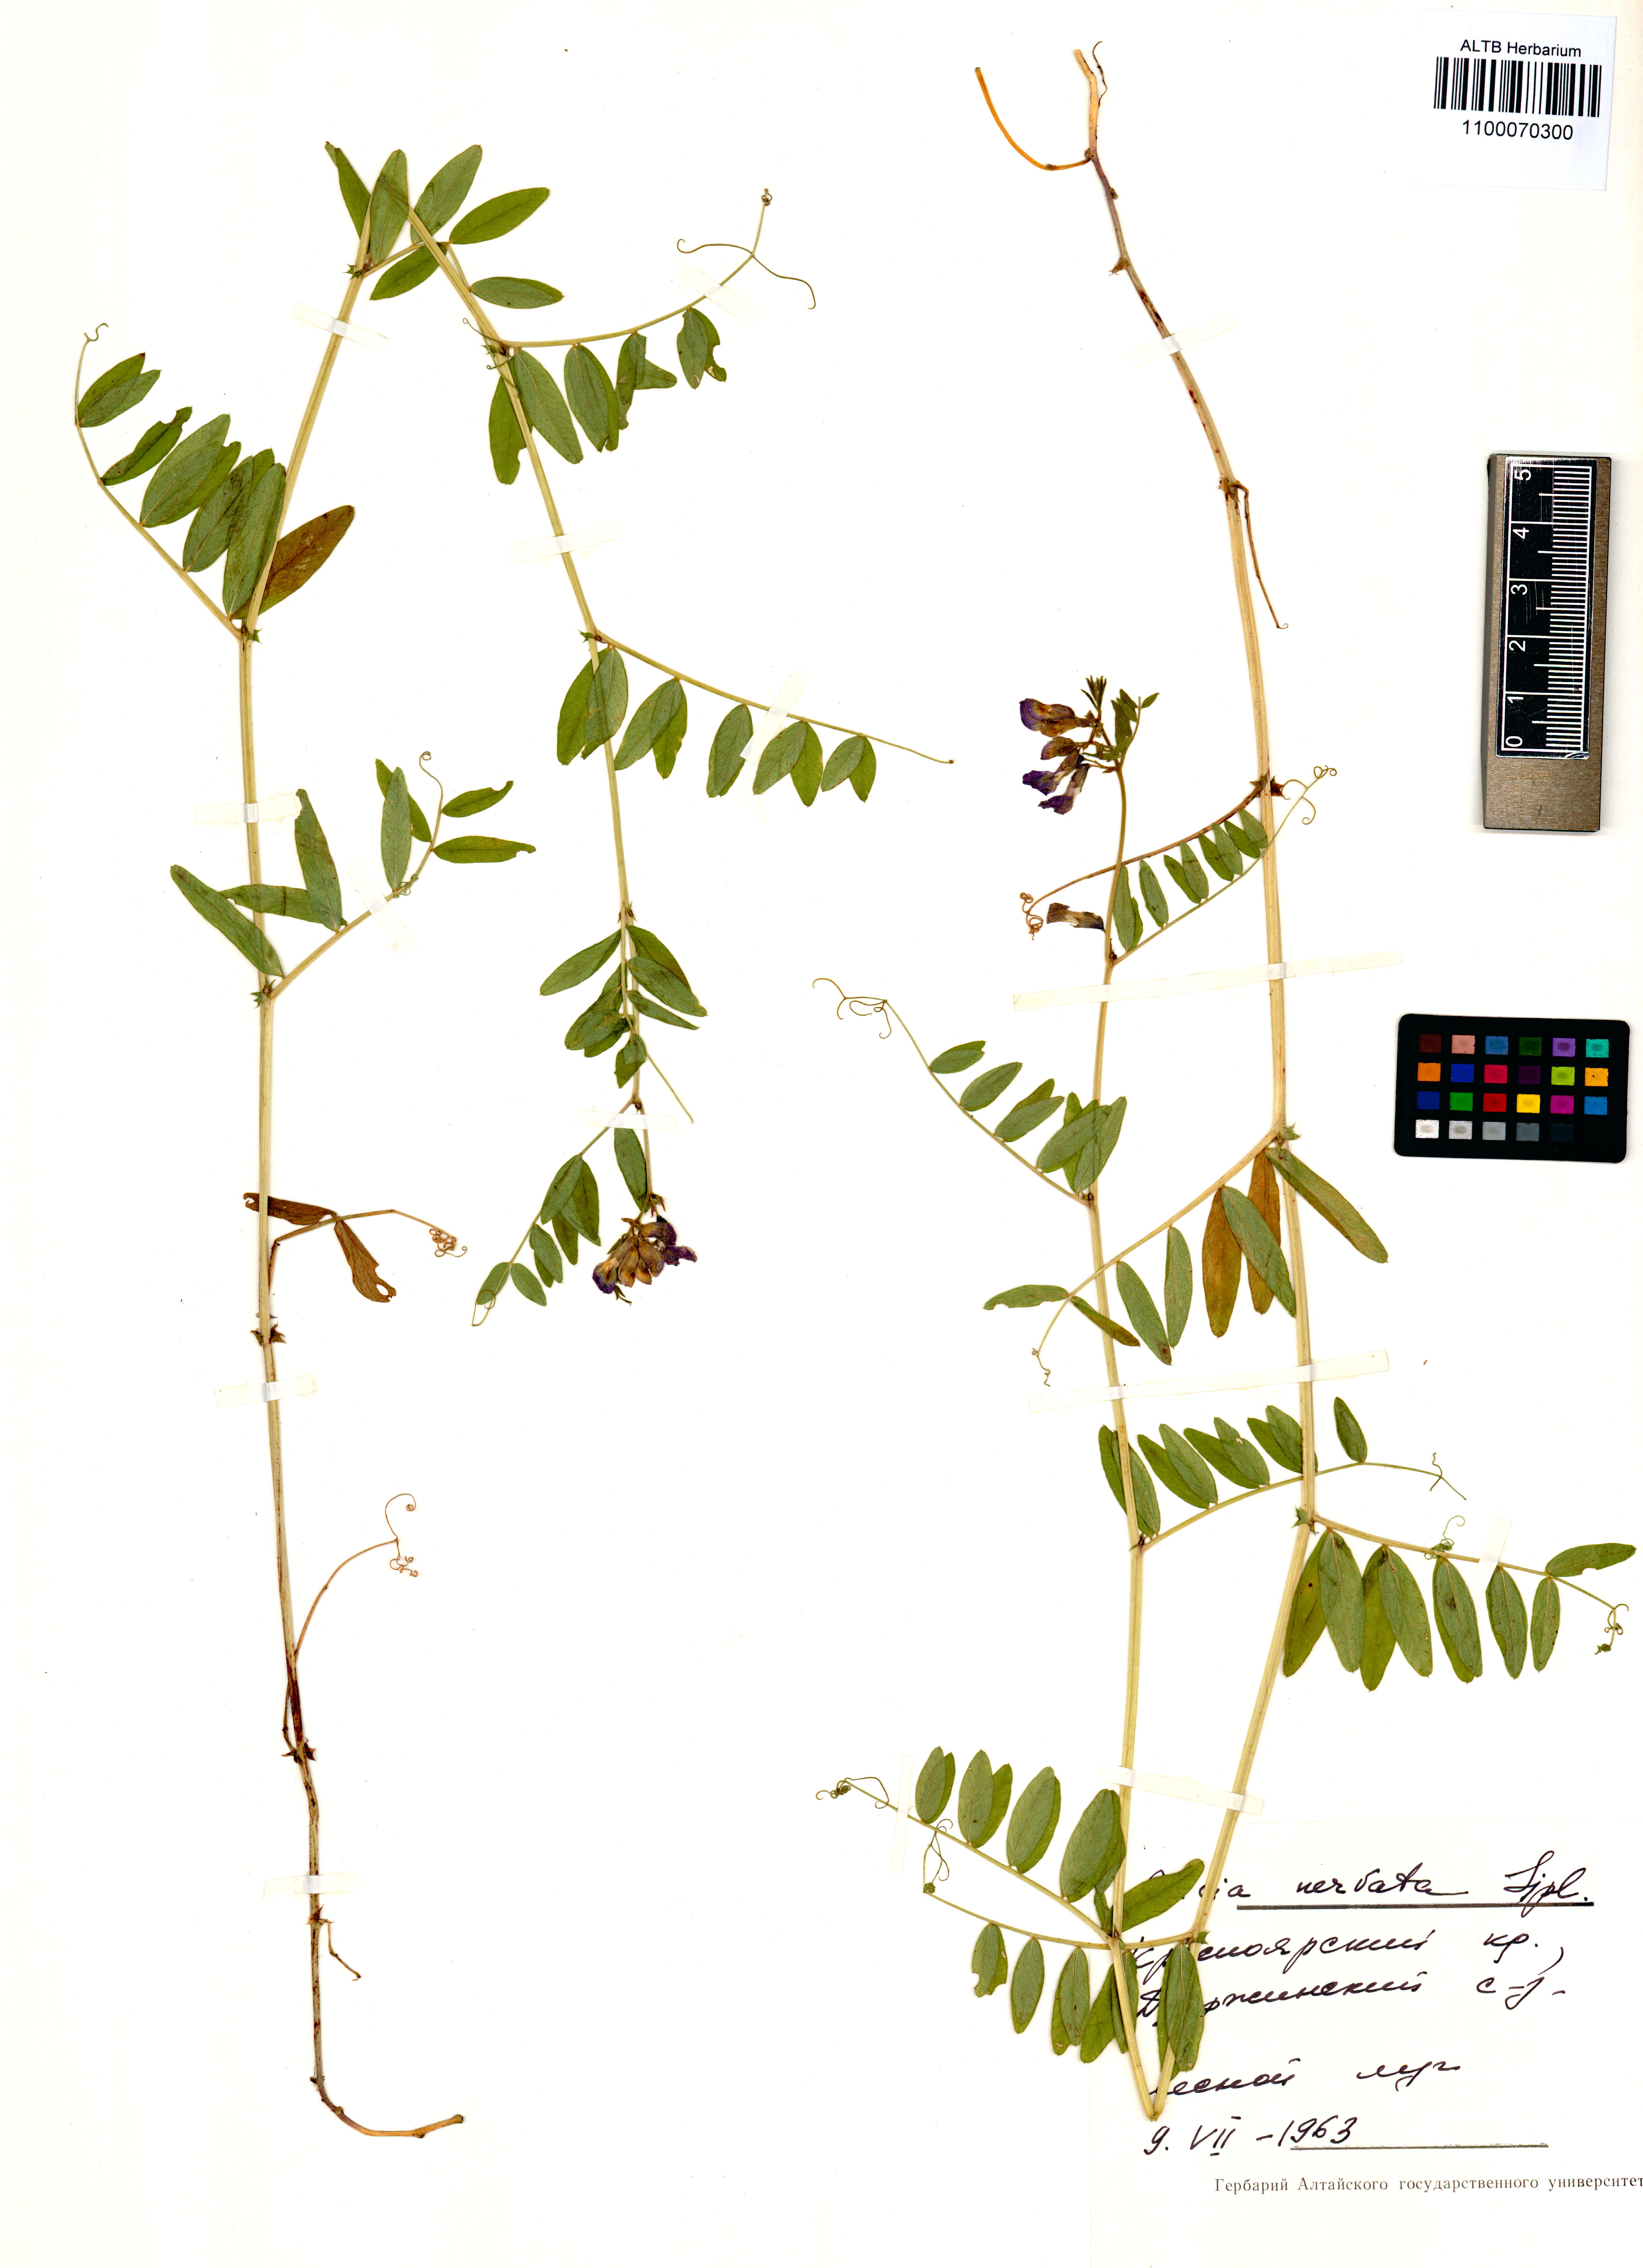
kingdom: Plantae
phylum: Tracheophyta
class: Magnoliopsida
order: Fabales
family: Fabaceae
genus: Vicia
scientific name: Vicia multicaulis
